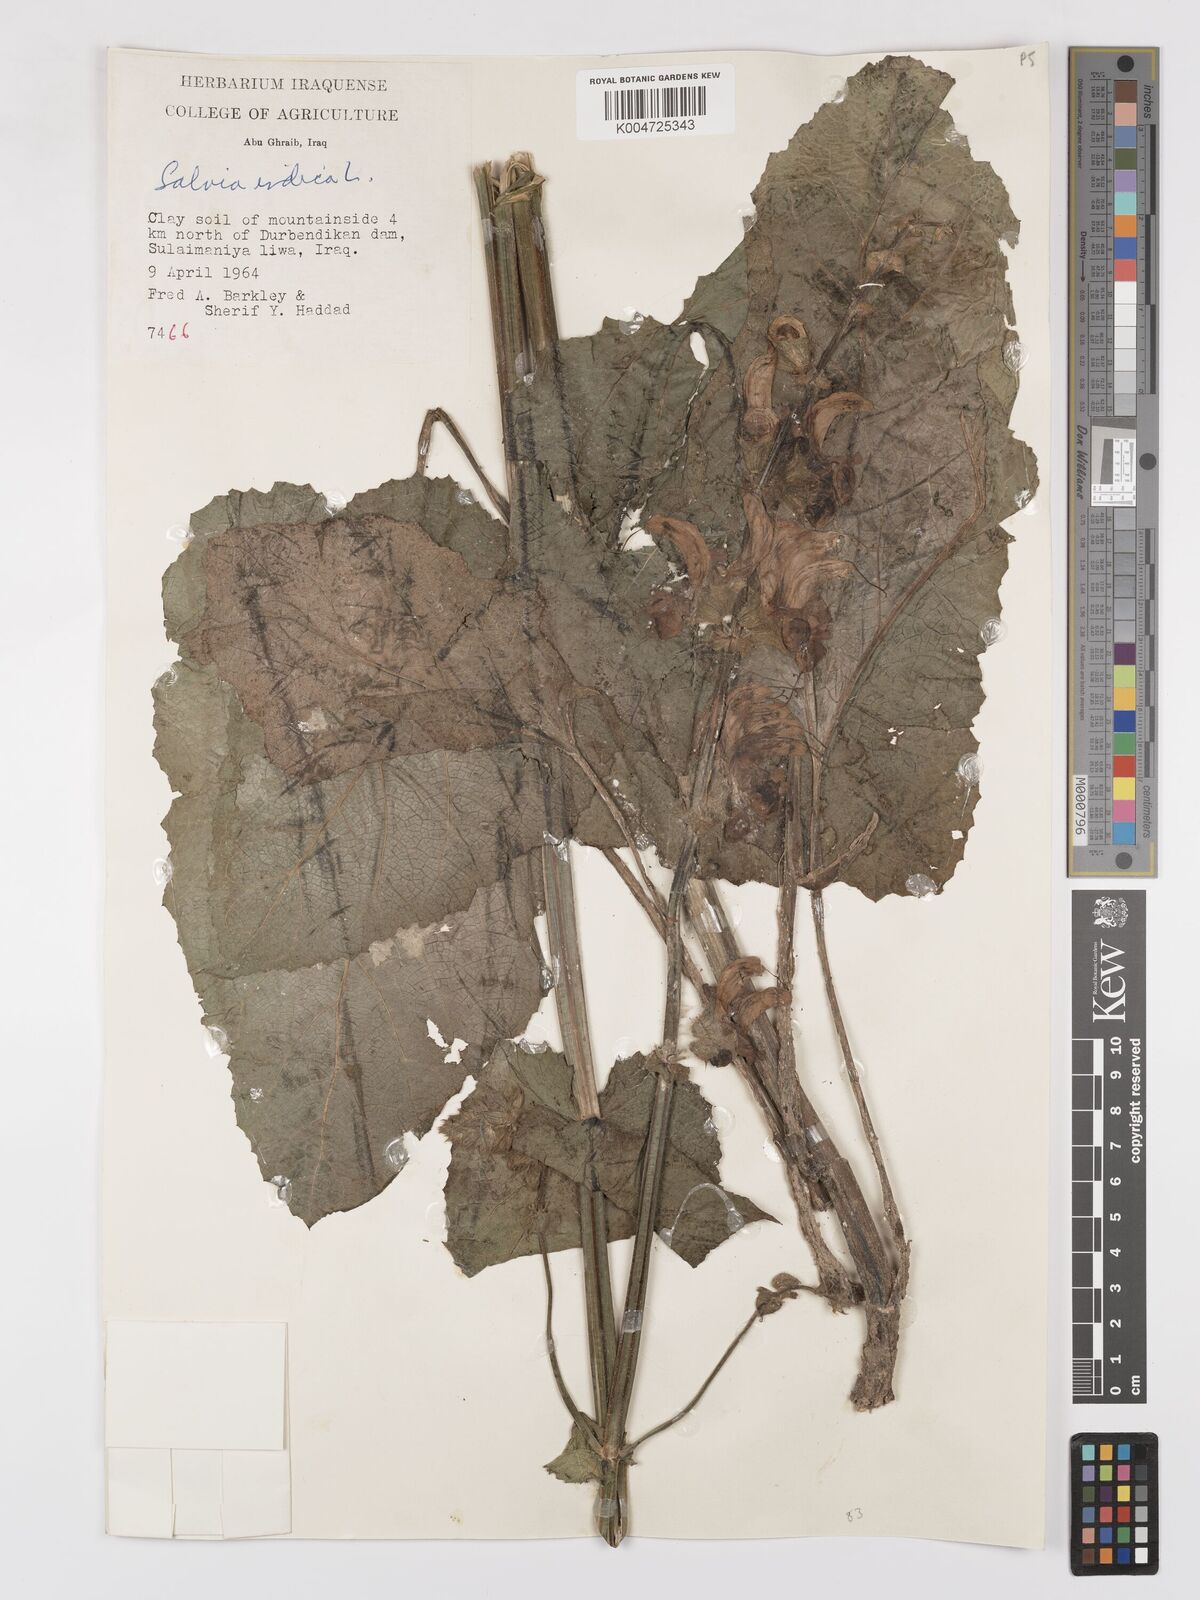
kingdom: Plantae
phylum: Tracheophyta
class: Magnoliopsida
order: Lamiales
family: Lamiaceae
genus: Salvia
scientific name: Salvia indica
